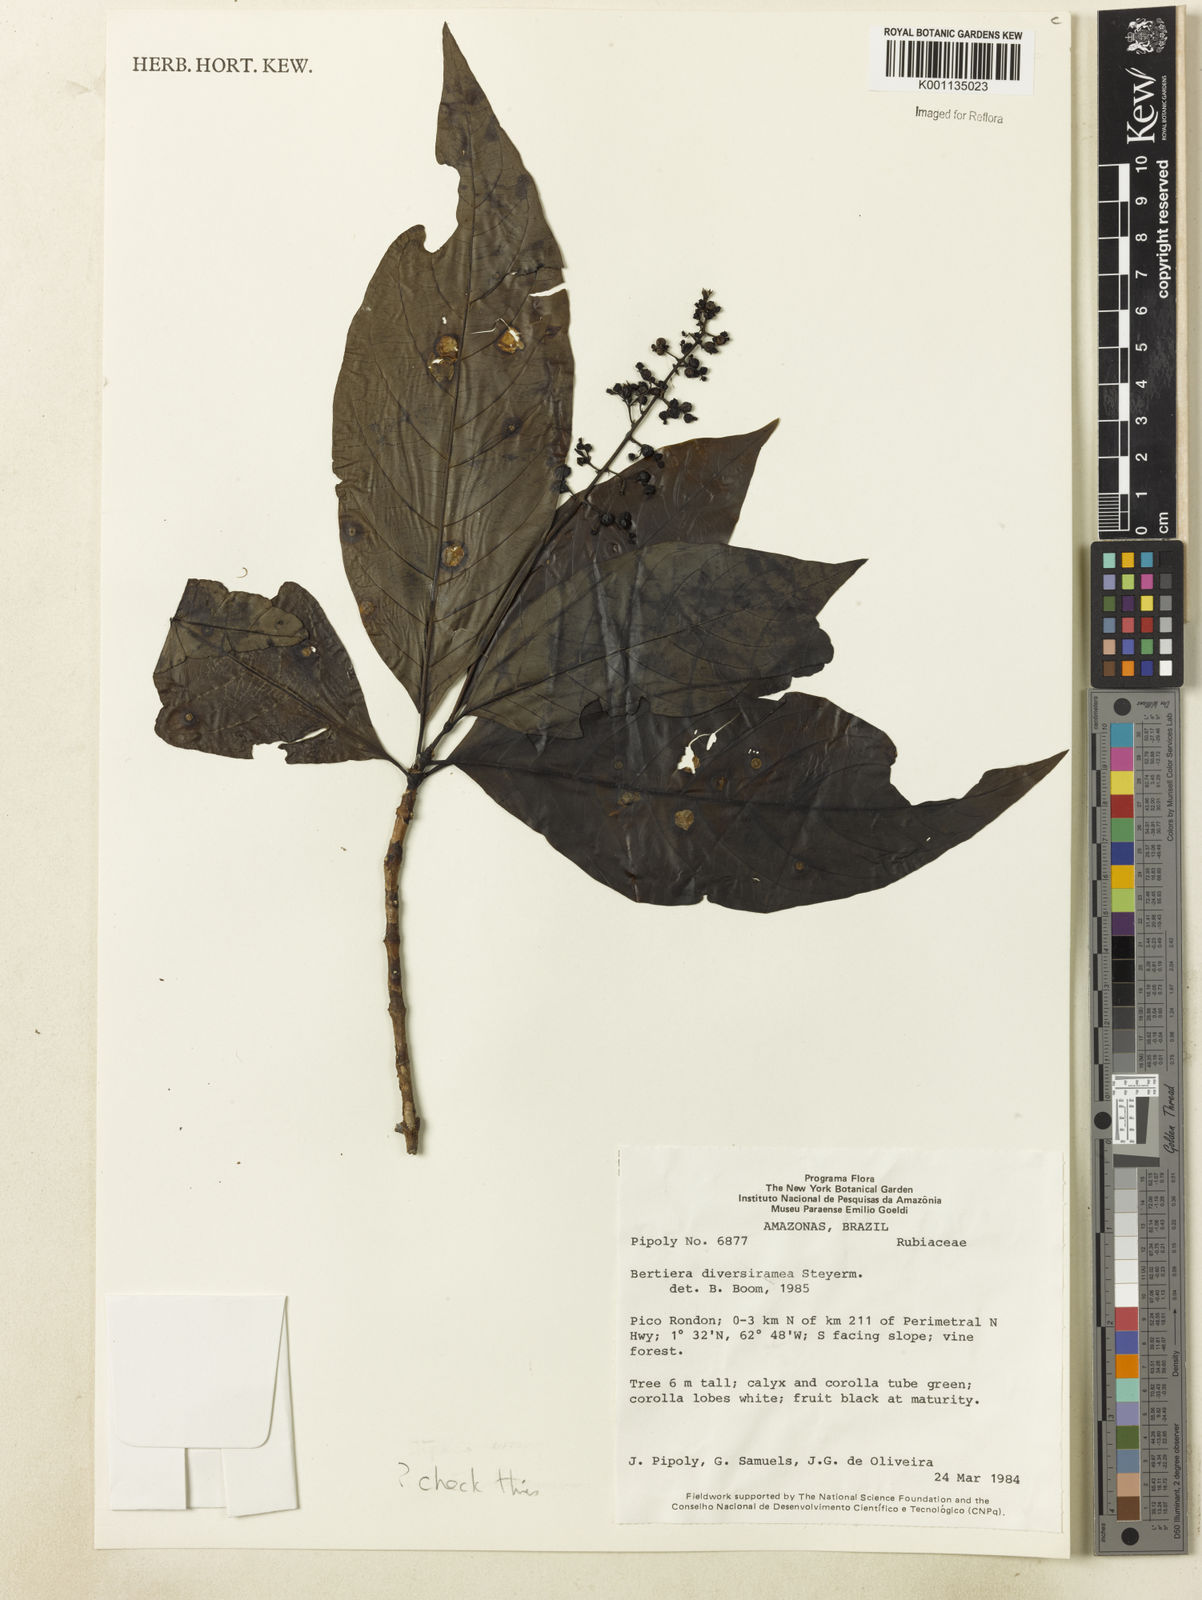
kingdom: Plantae
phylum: Tracheophyta
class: Magnoliopsida
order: Gentianales
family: Rubiaceae
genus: Bertiera
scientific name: Bertiera guianensis
